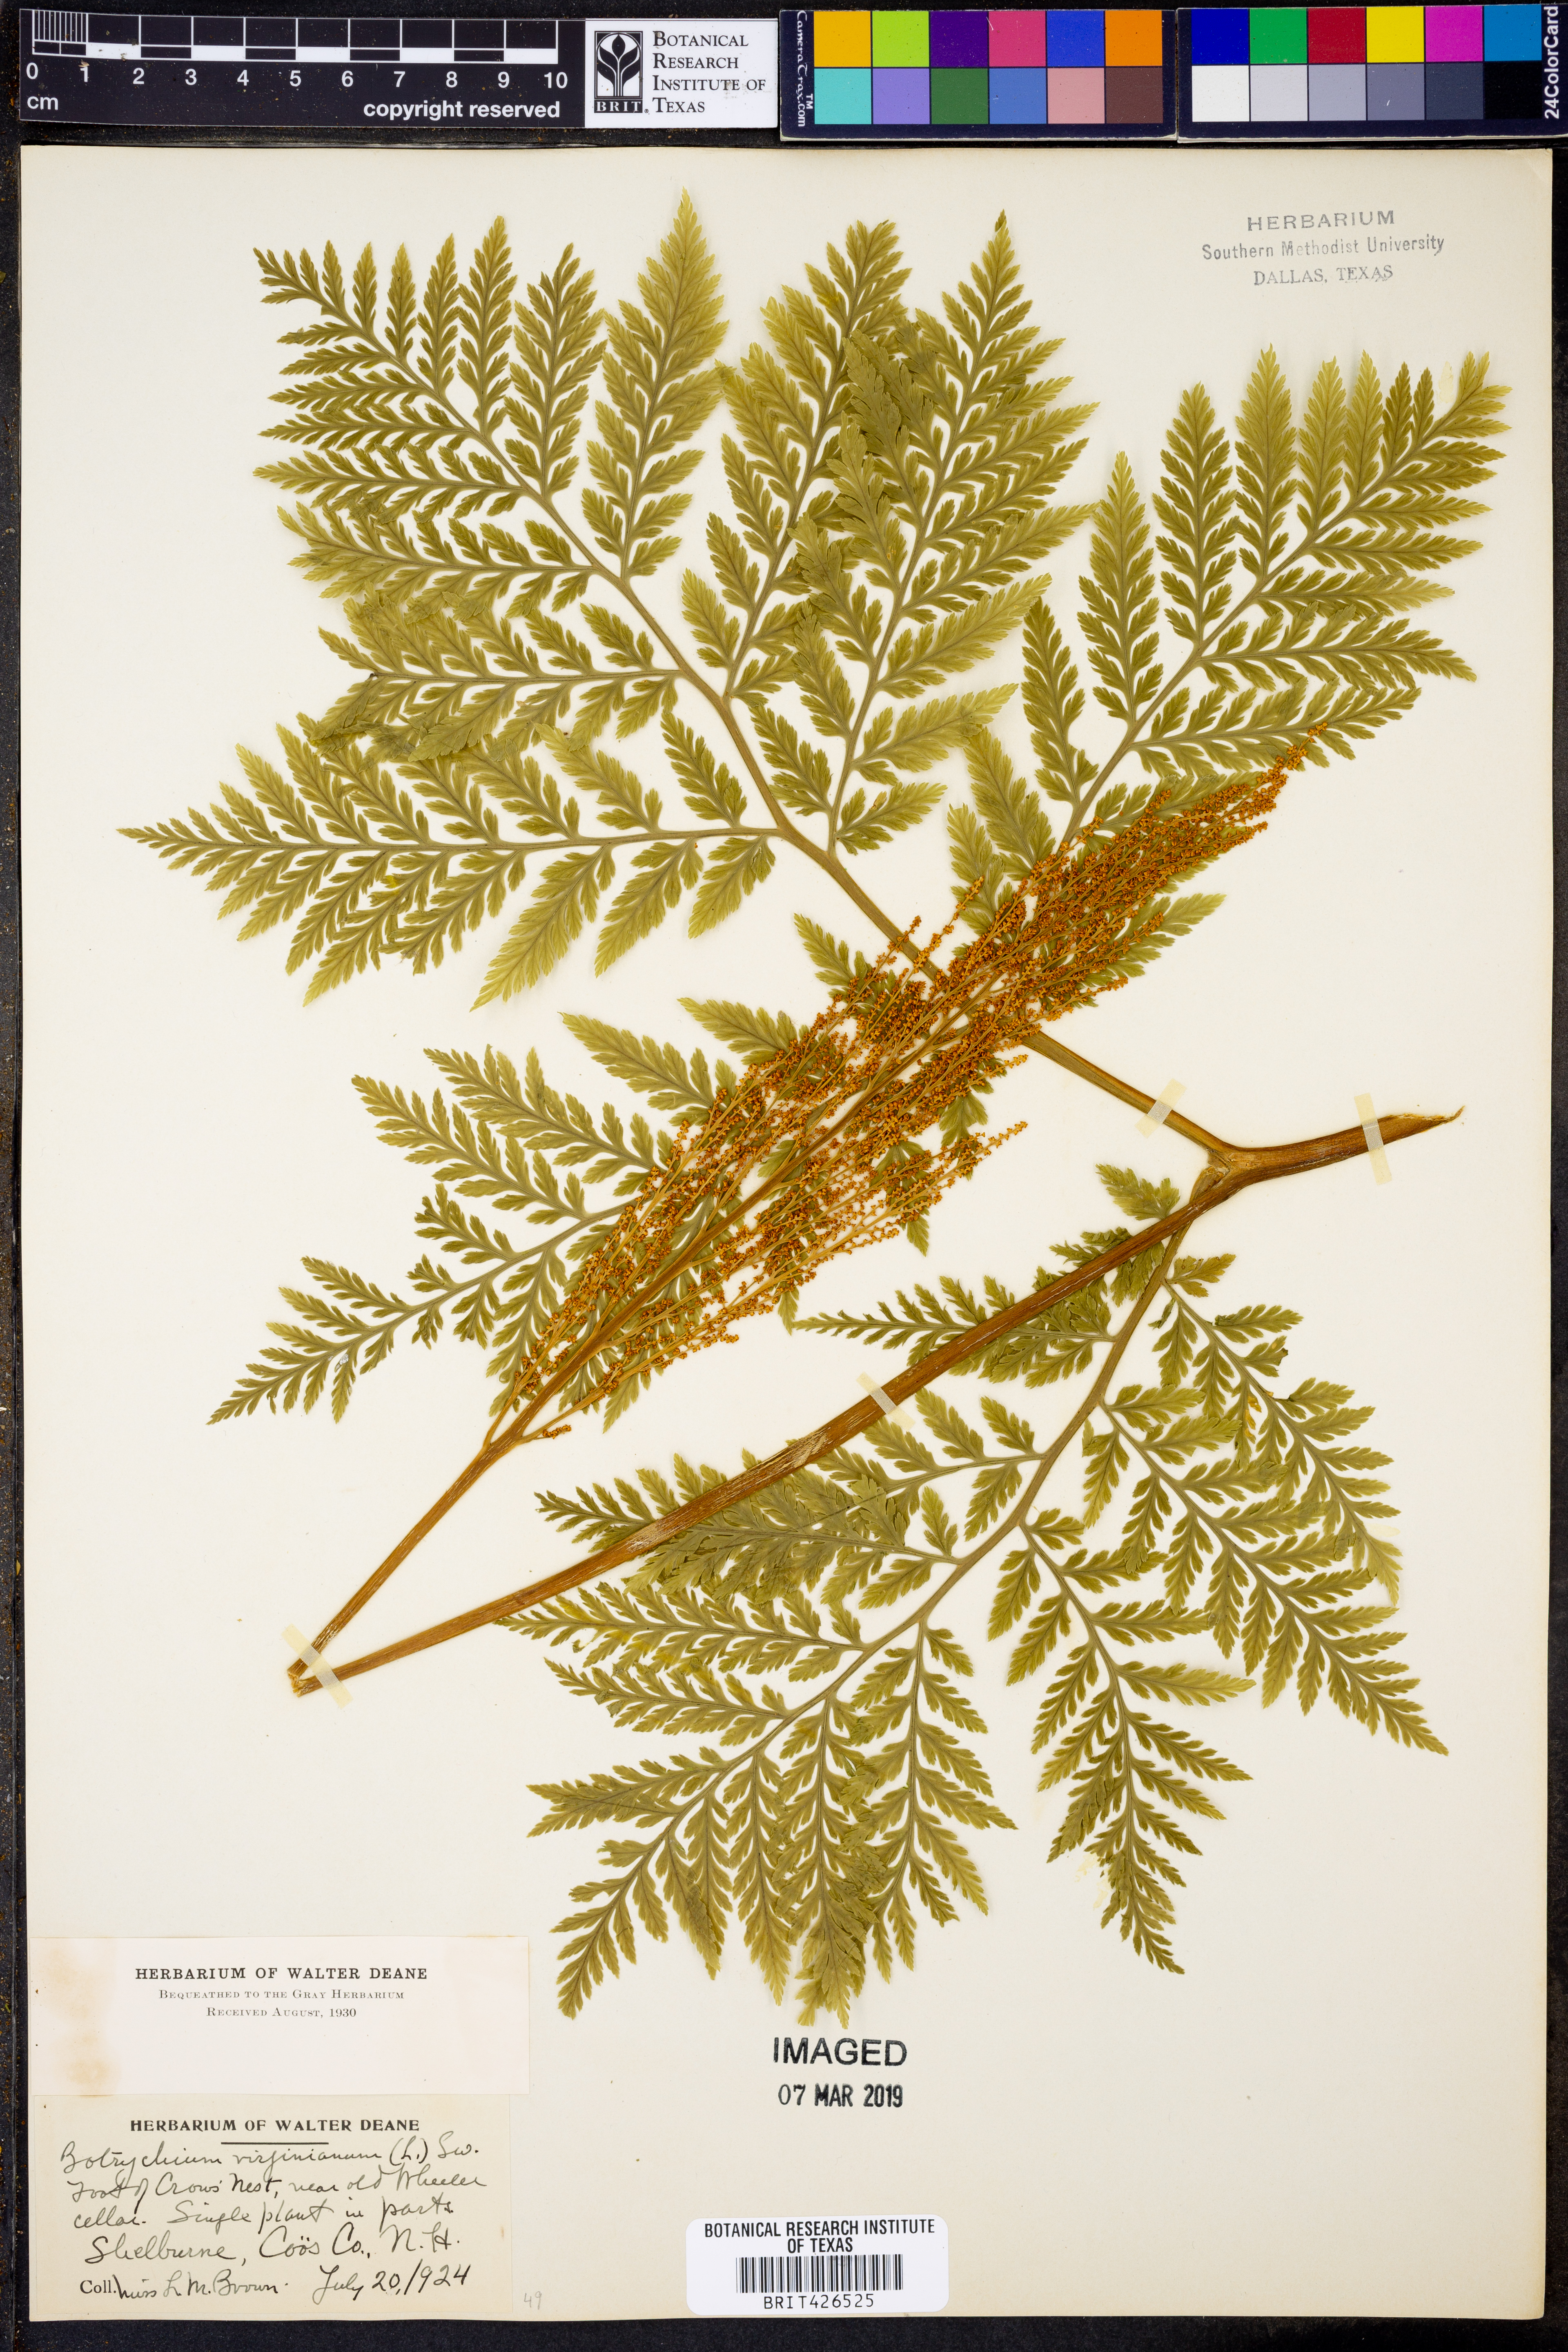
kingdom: Plantae
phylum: Tracheophyta
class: Polypodiopsida
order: Ophioglossales
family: Ophioglossaceae
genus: Botrypus
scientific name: Botrypus virginianus
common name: Common grapefern
